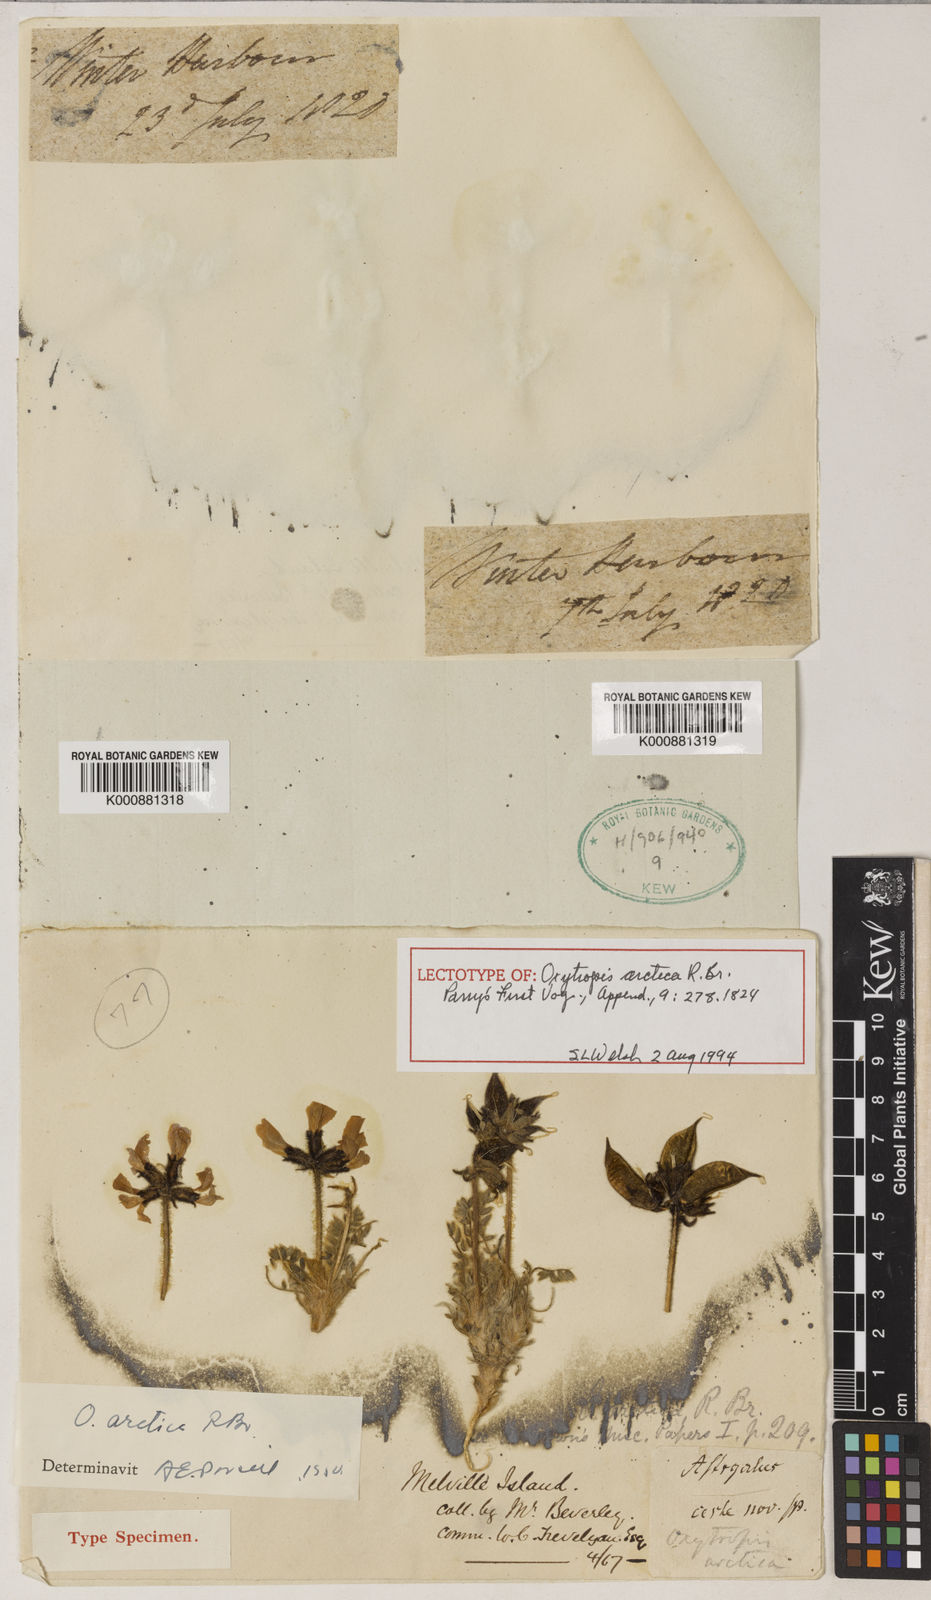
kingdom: Plantae
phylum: Tracheophyta
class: Magnoliopsida
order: Fabales
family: Fabaceae
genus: Oxytropis
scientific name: Oxytropis arctica
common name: Arctic locoweed
